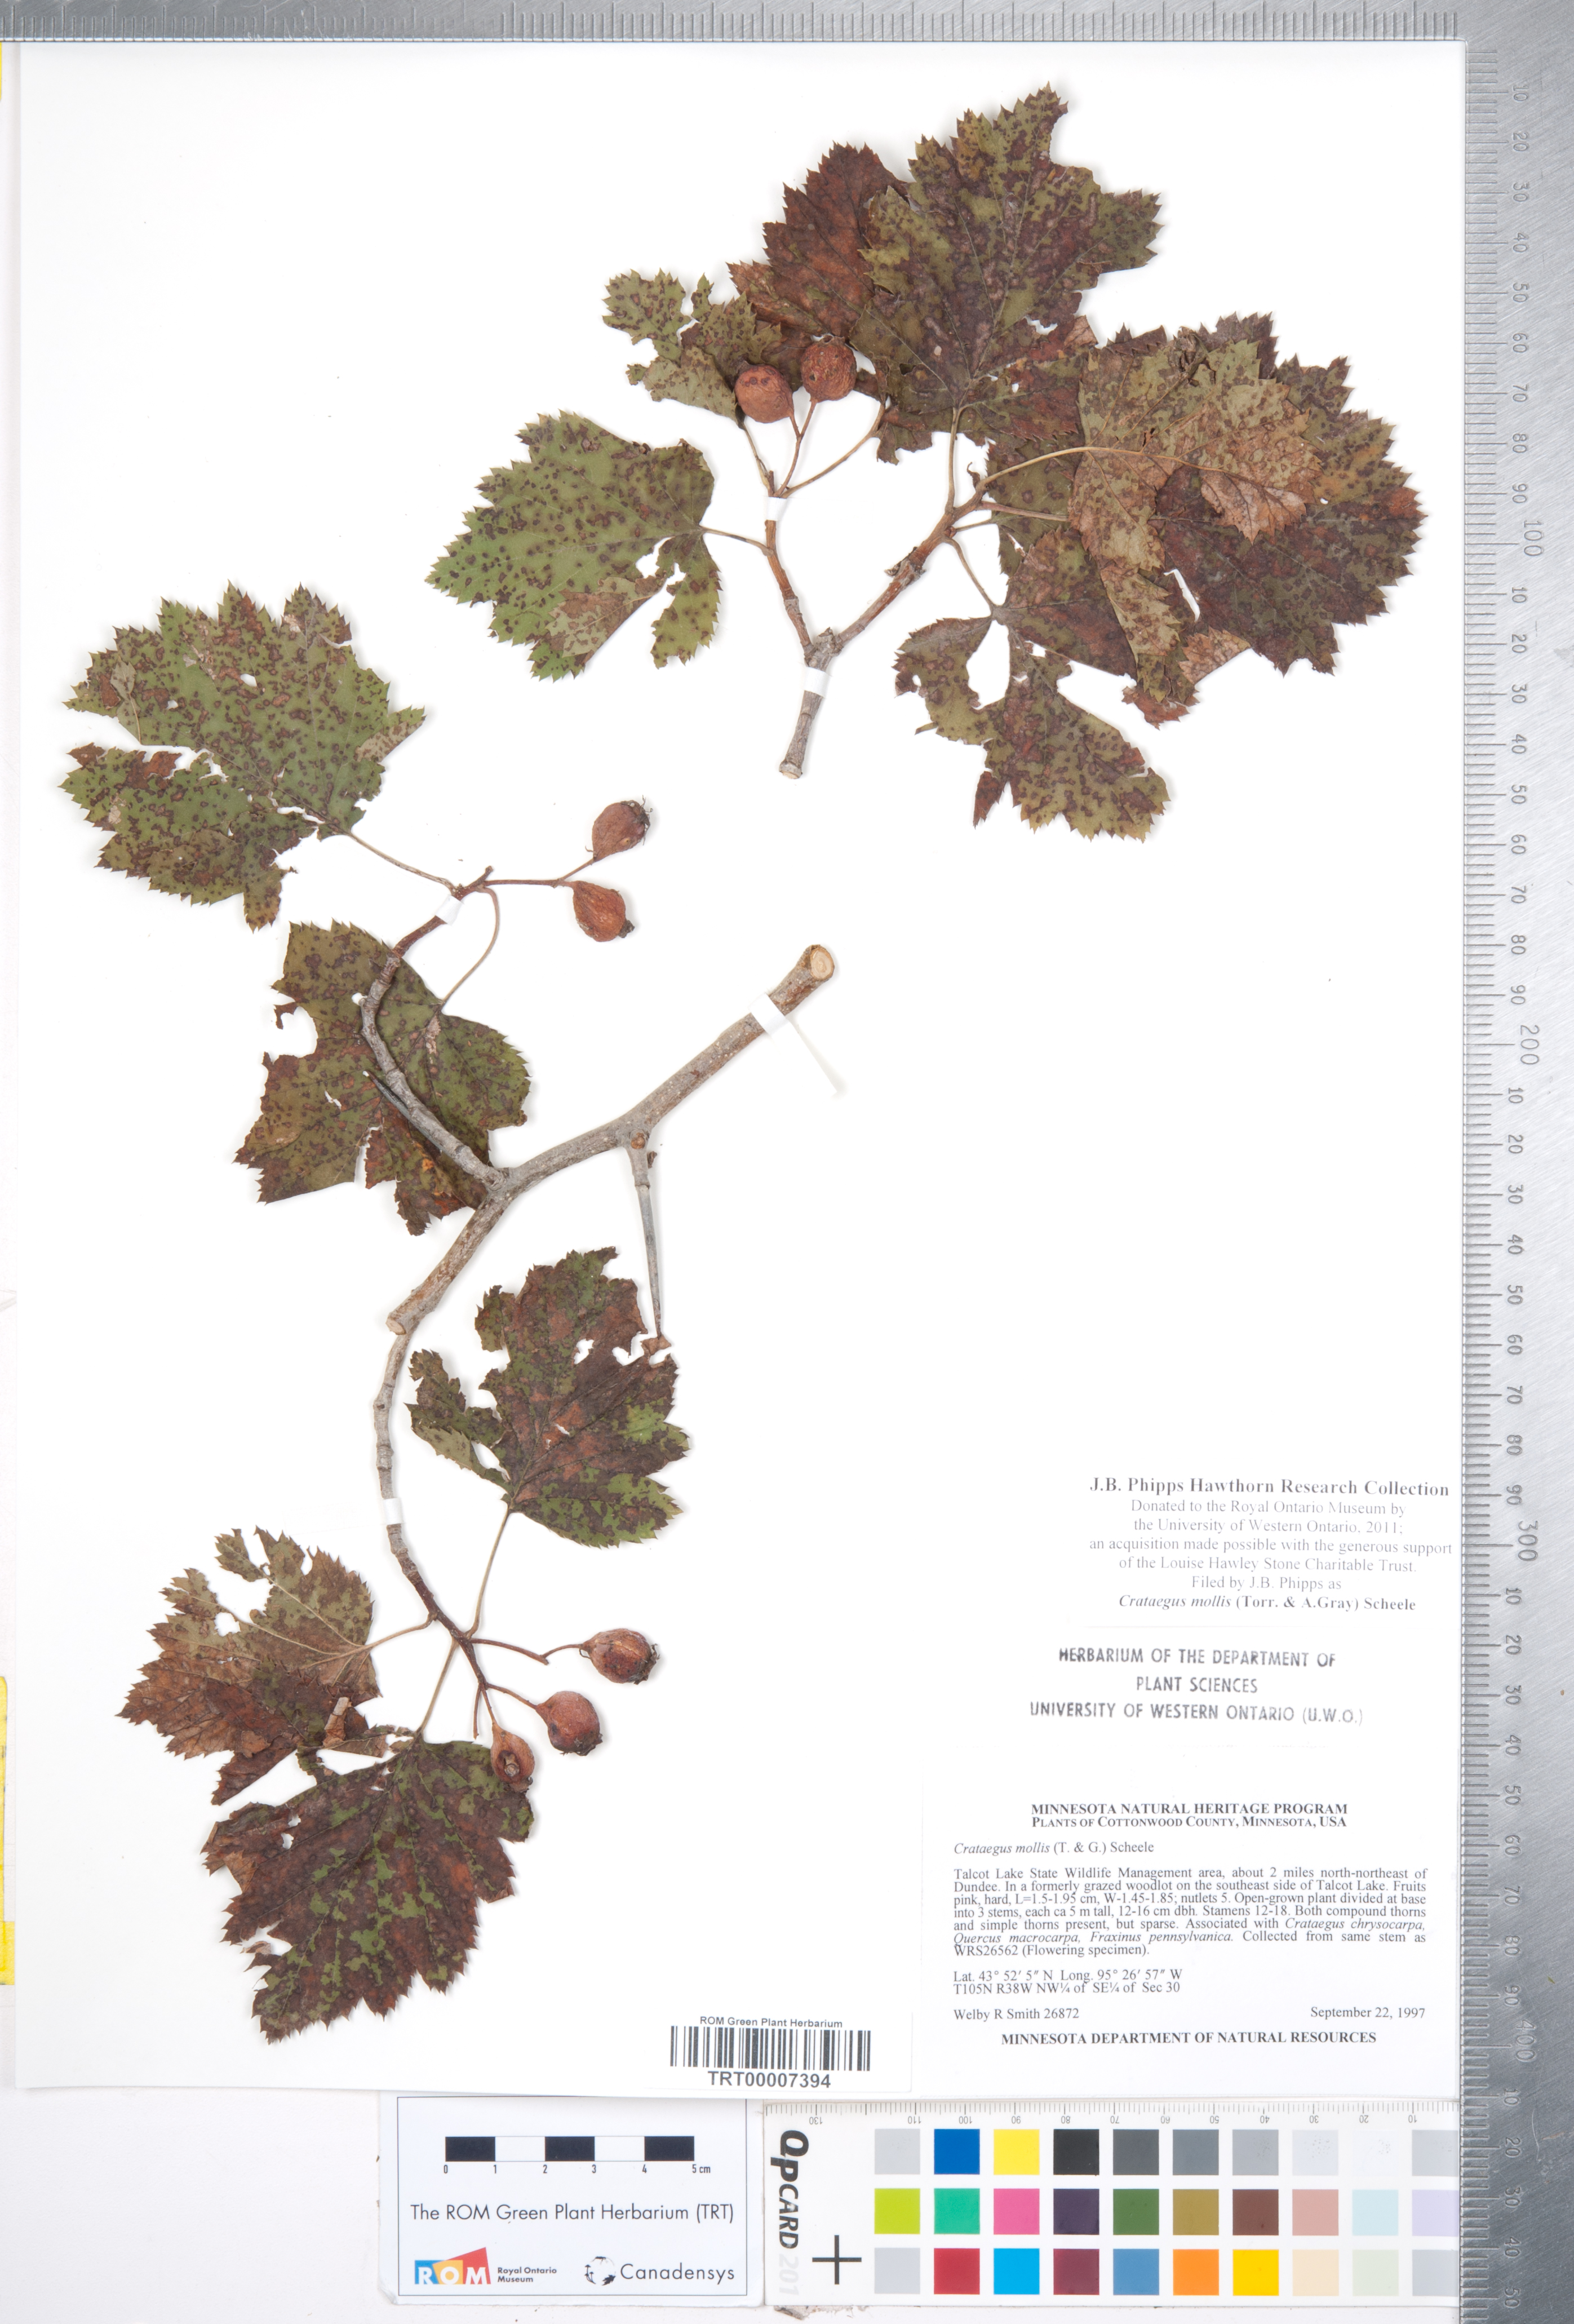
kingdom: Plantae
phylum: Tracheophyta
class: Magnoliopsida
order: Rosales
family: Rosaceae
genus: Crataegus
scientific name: Crataegus mollis
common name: Downy hawthorn
